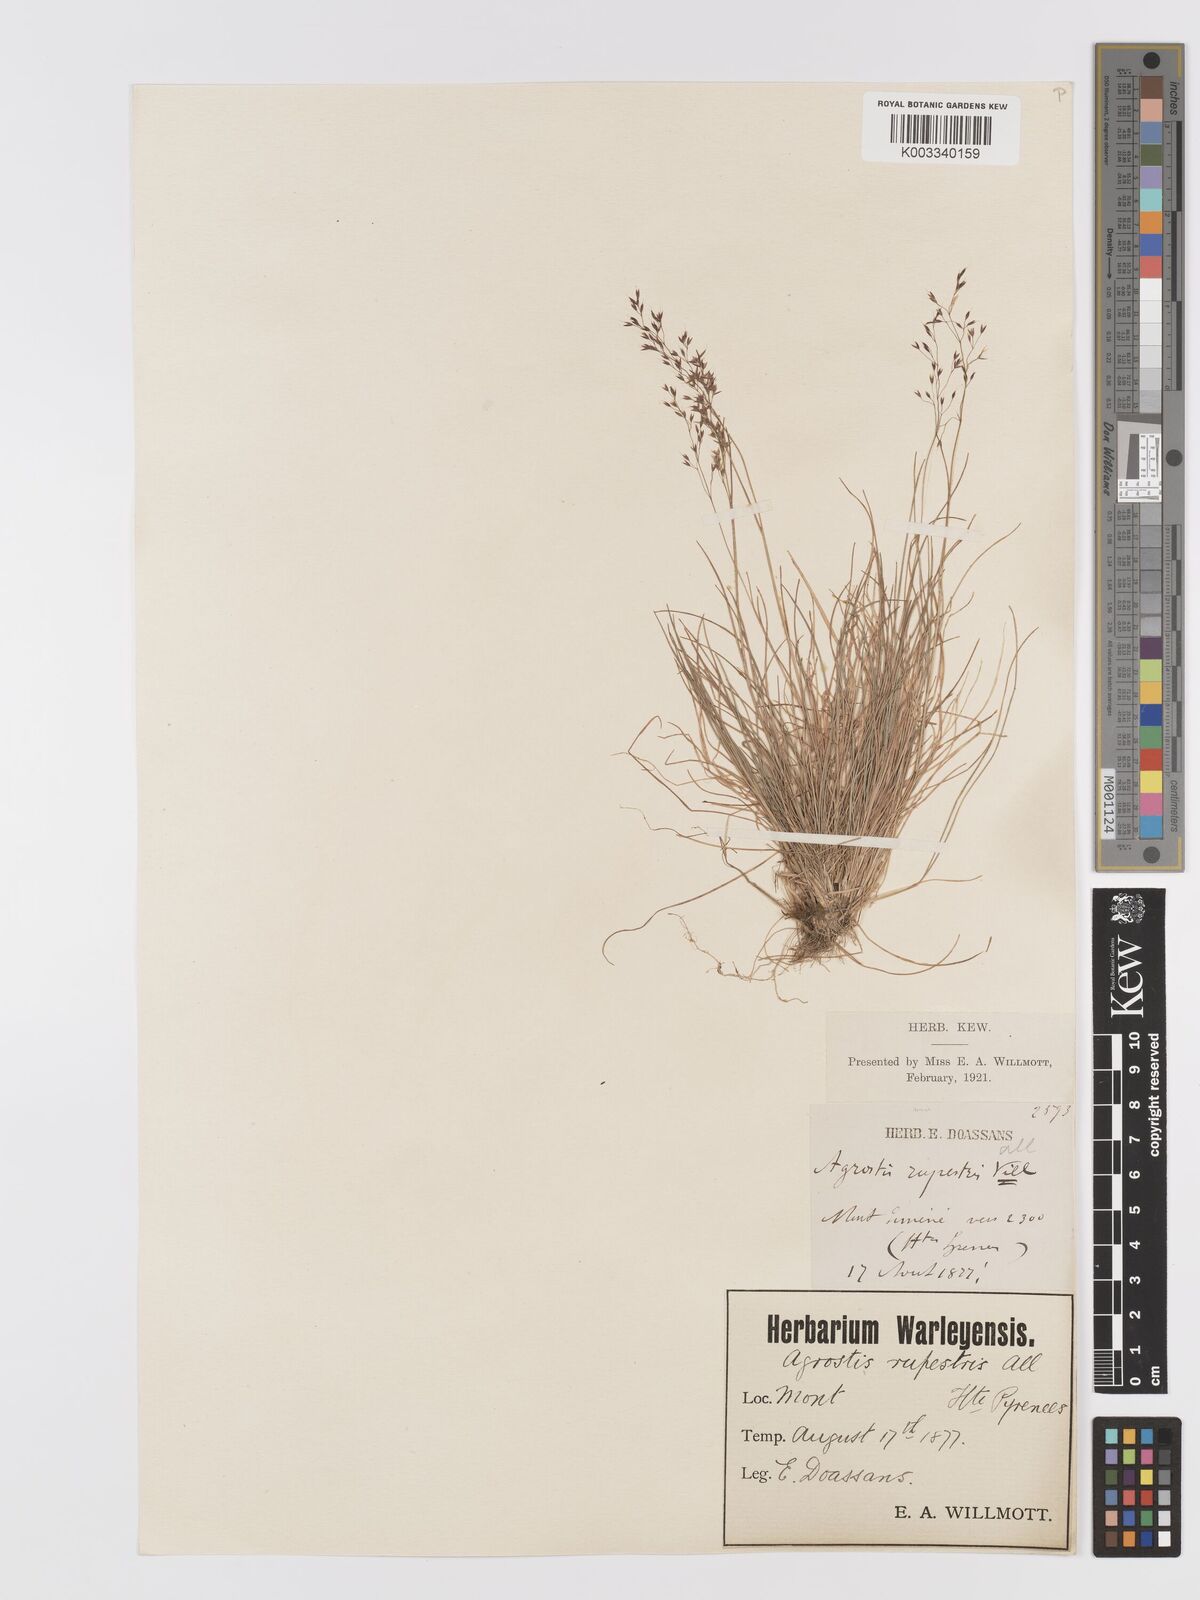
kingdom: Plantae
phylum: Tracheophyta
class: Liliopsida
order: Poales
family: Poaceae
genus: Agrostis
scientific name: Agrostis rupestris
